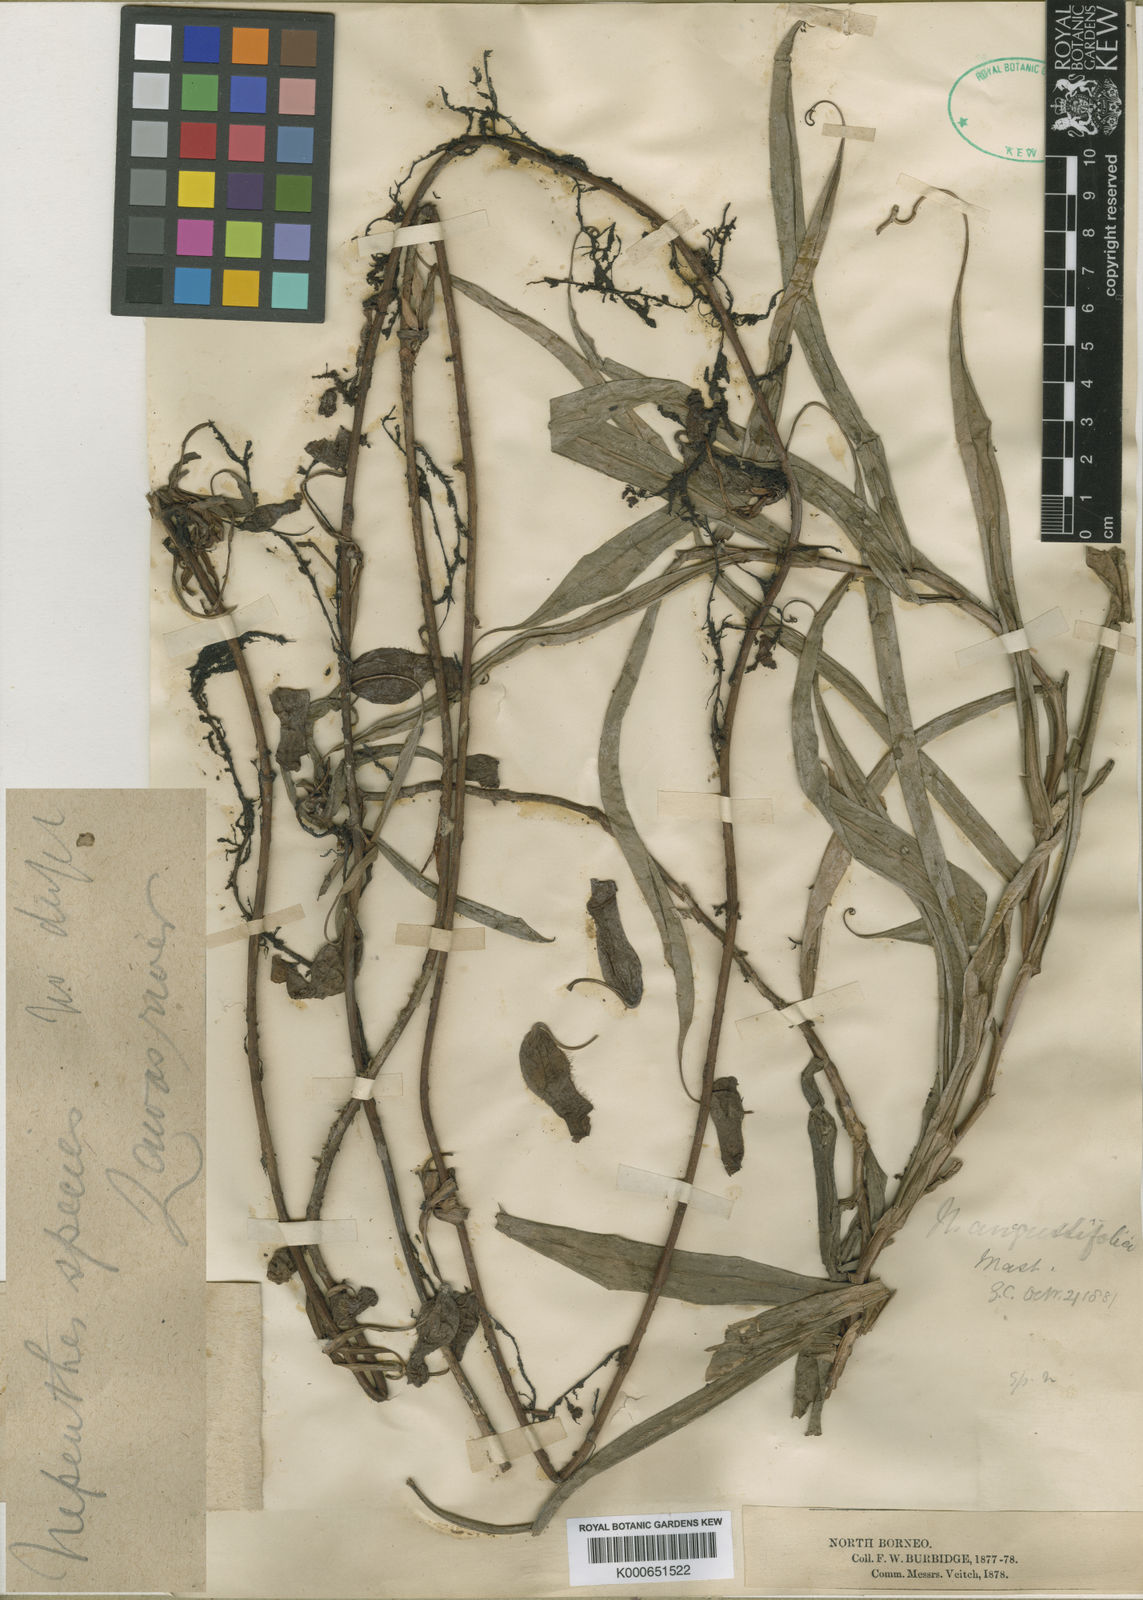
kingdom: Plantae
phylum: Tracheophyta
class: Magnoliopsida
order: Caryophyllales
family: Nepenthaceae
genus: Nepenthes
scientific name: Nepenthes gracilis
